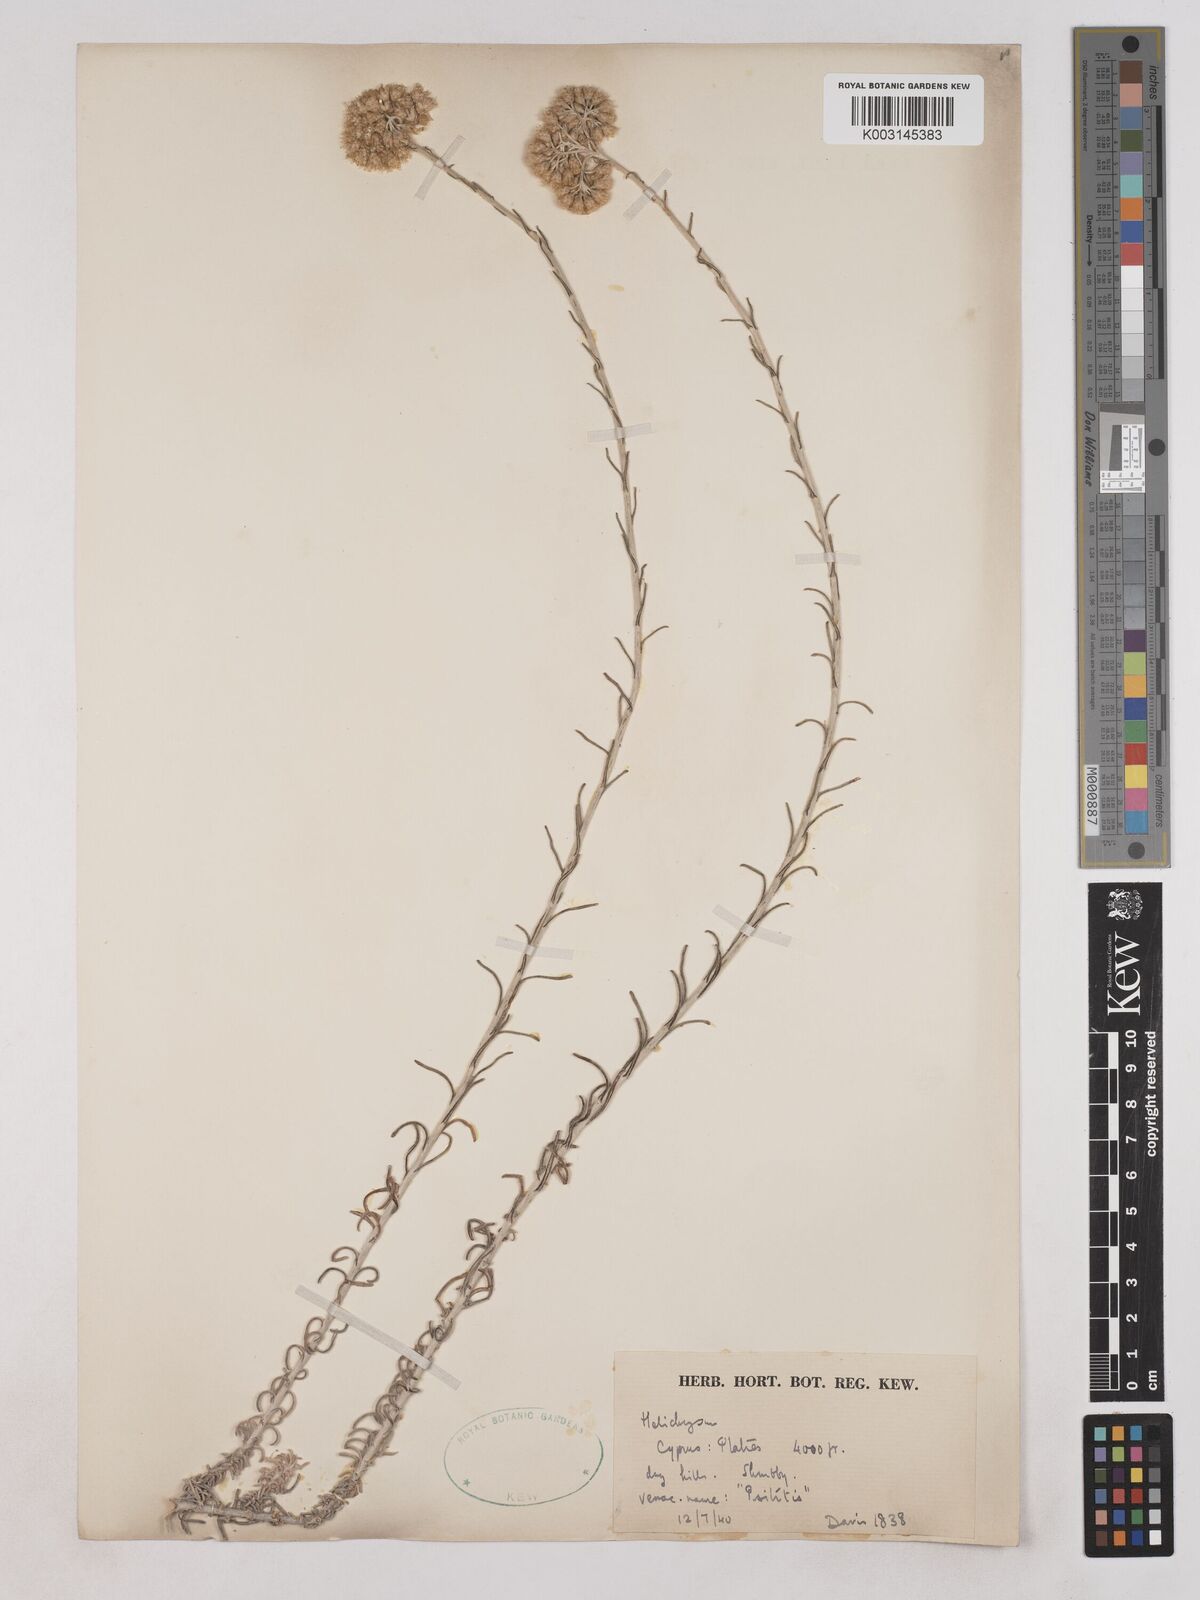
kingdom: Plantae
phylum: Tracheophyta
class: Magnoliopsida
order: Asterales
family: Asteraceae
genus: Helichrysum
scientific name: Helichrysum italicum
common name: Curryplant
